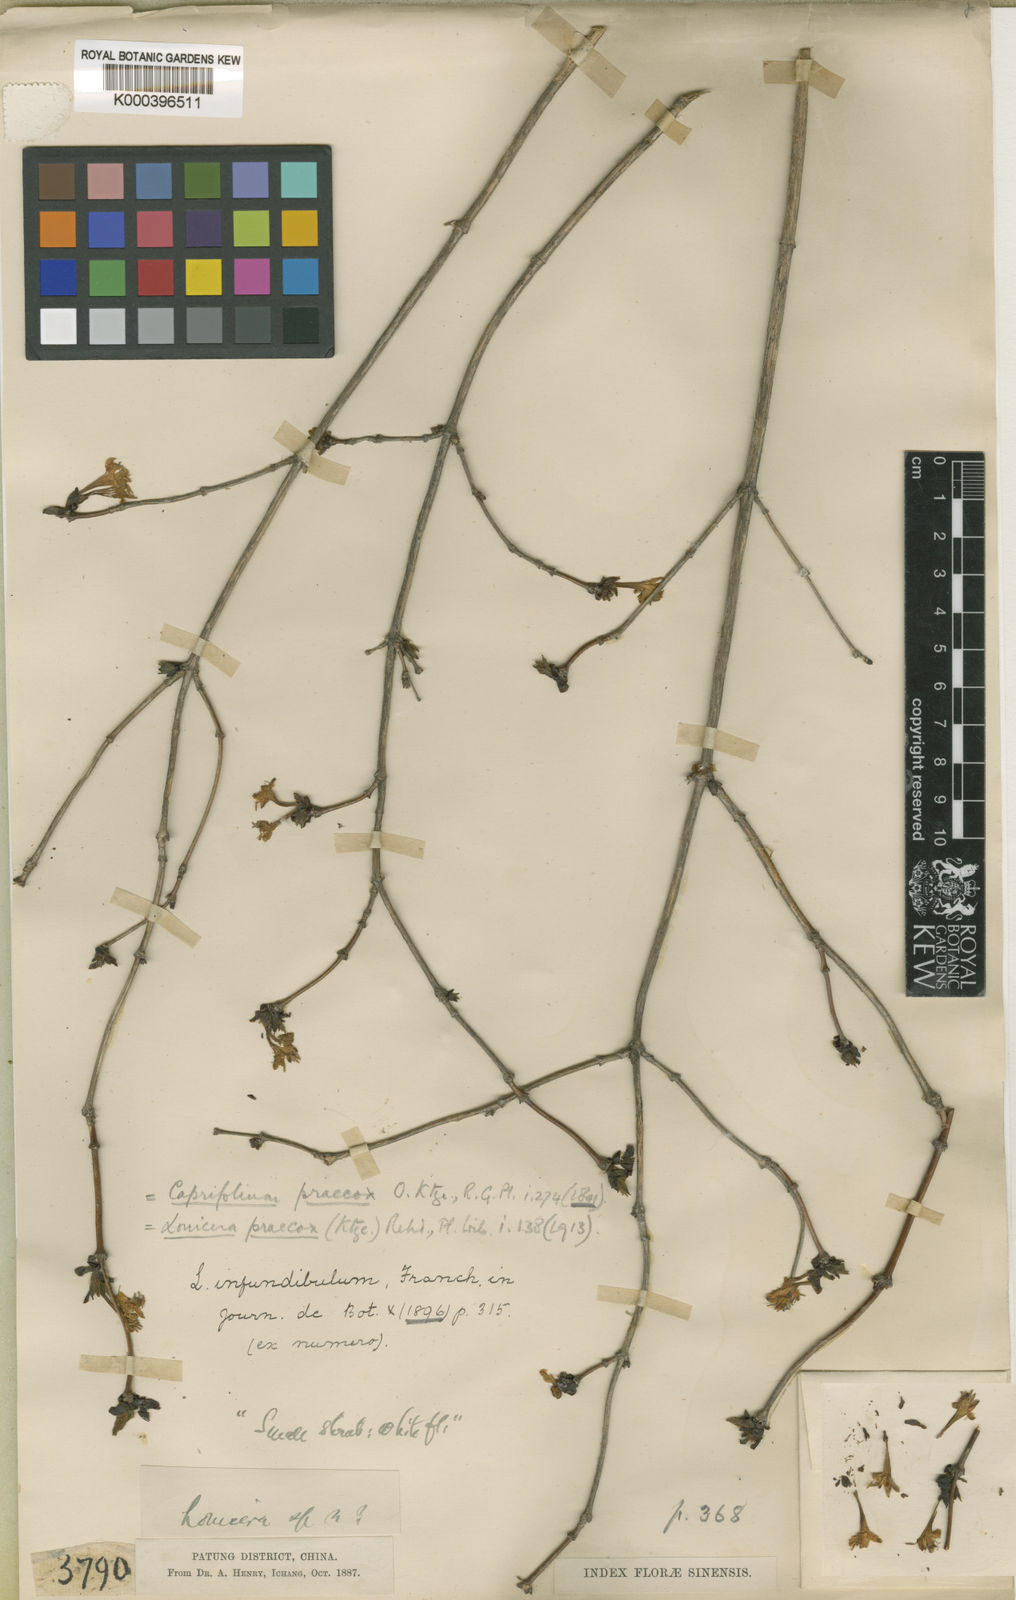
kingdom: Plantae
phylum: Tracheophyta
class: Magnoliopsida
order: Dipsacales
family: Caprifoliaceae
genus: Lonicera
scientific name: Lonicera elisae
